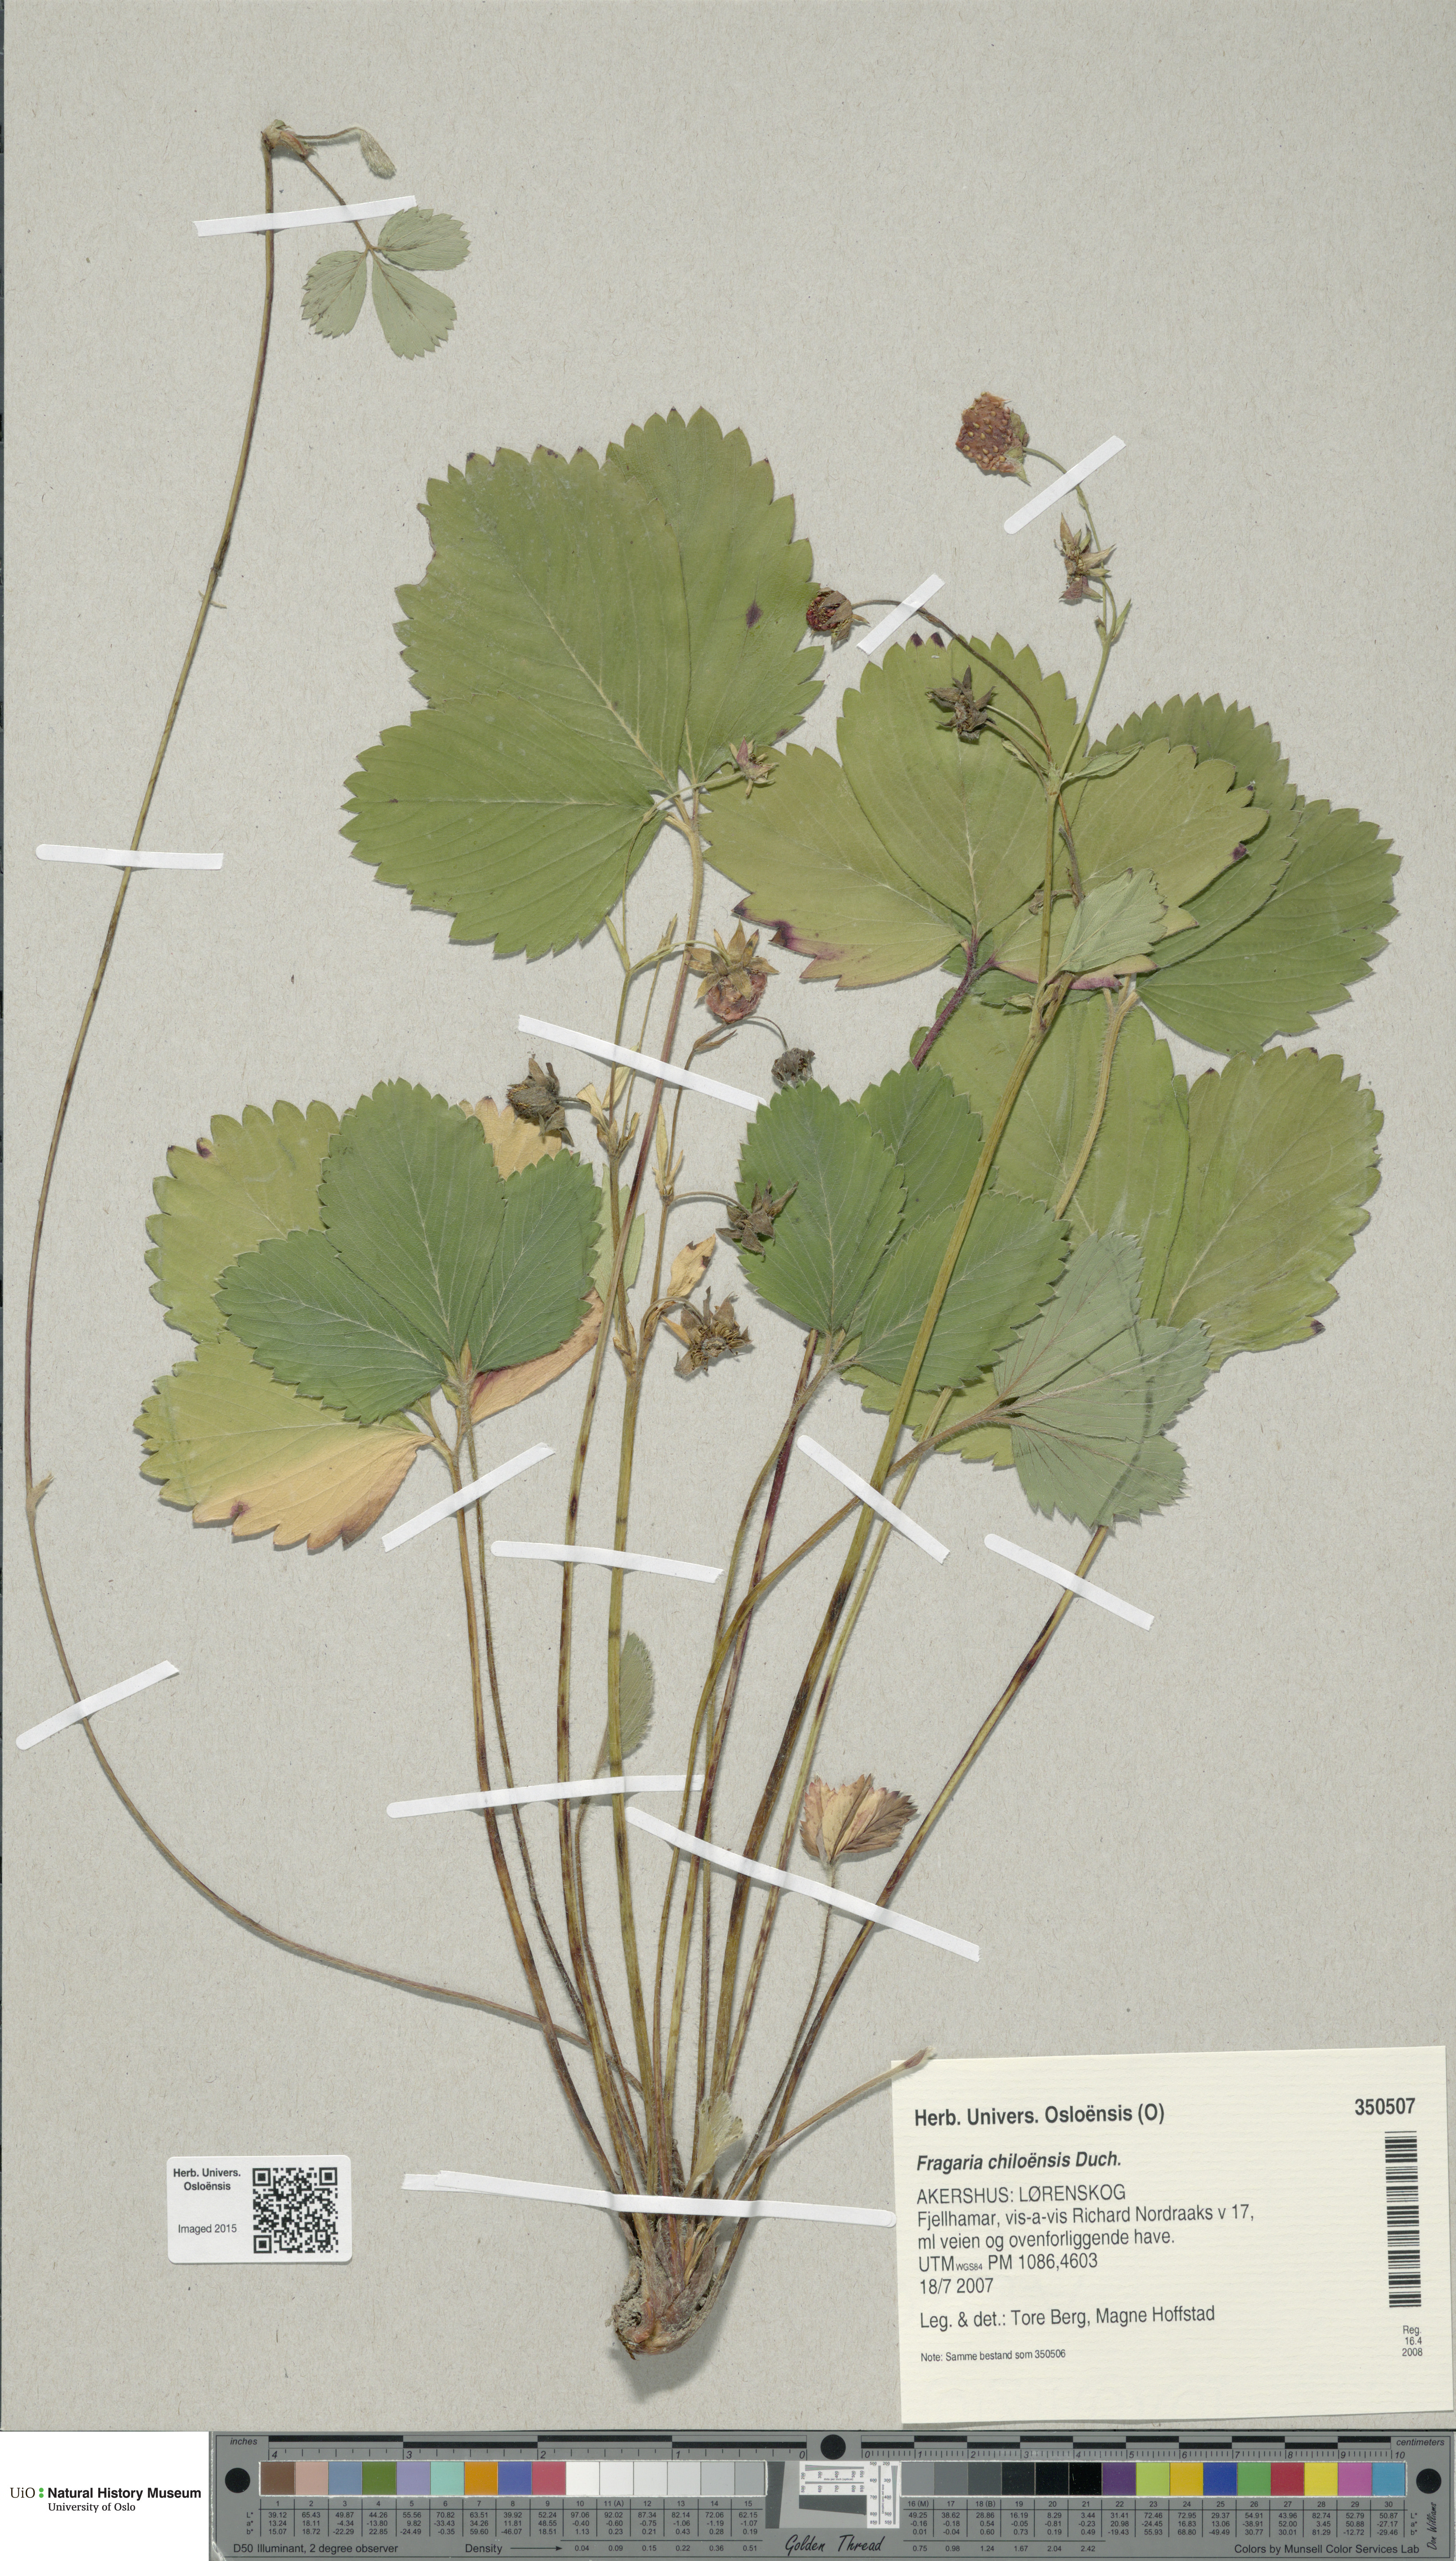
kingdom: Plantae
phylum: Tracheophyta
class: Magnoliopsida
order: Rosales
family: Rosaceae
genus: Fragaria
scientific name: Fragaria chiloensis
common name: Beach strawberry
